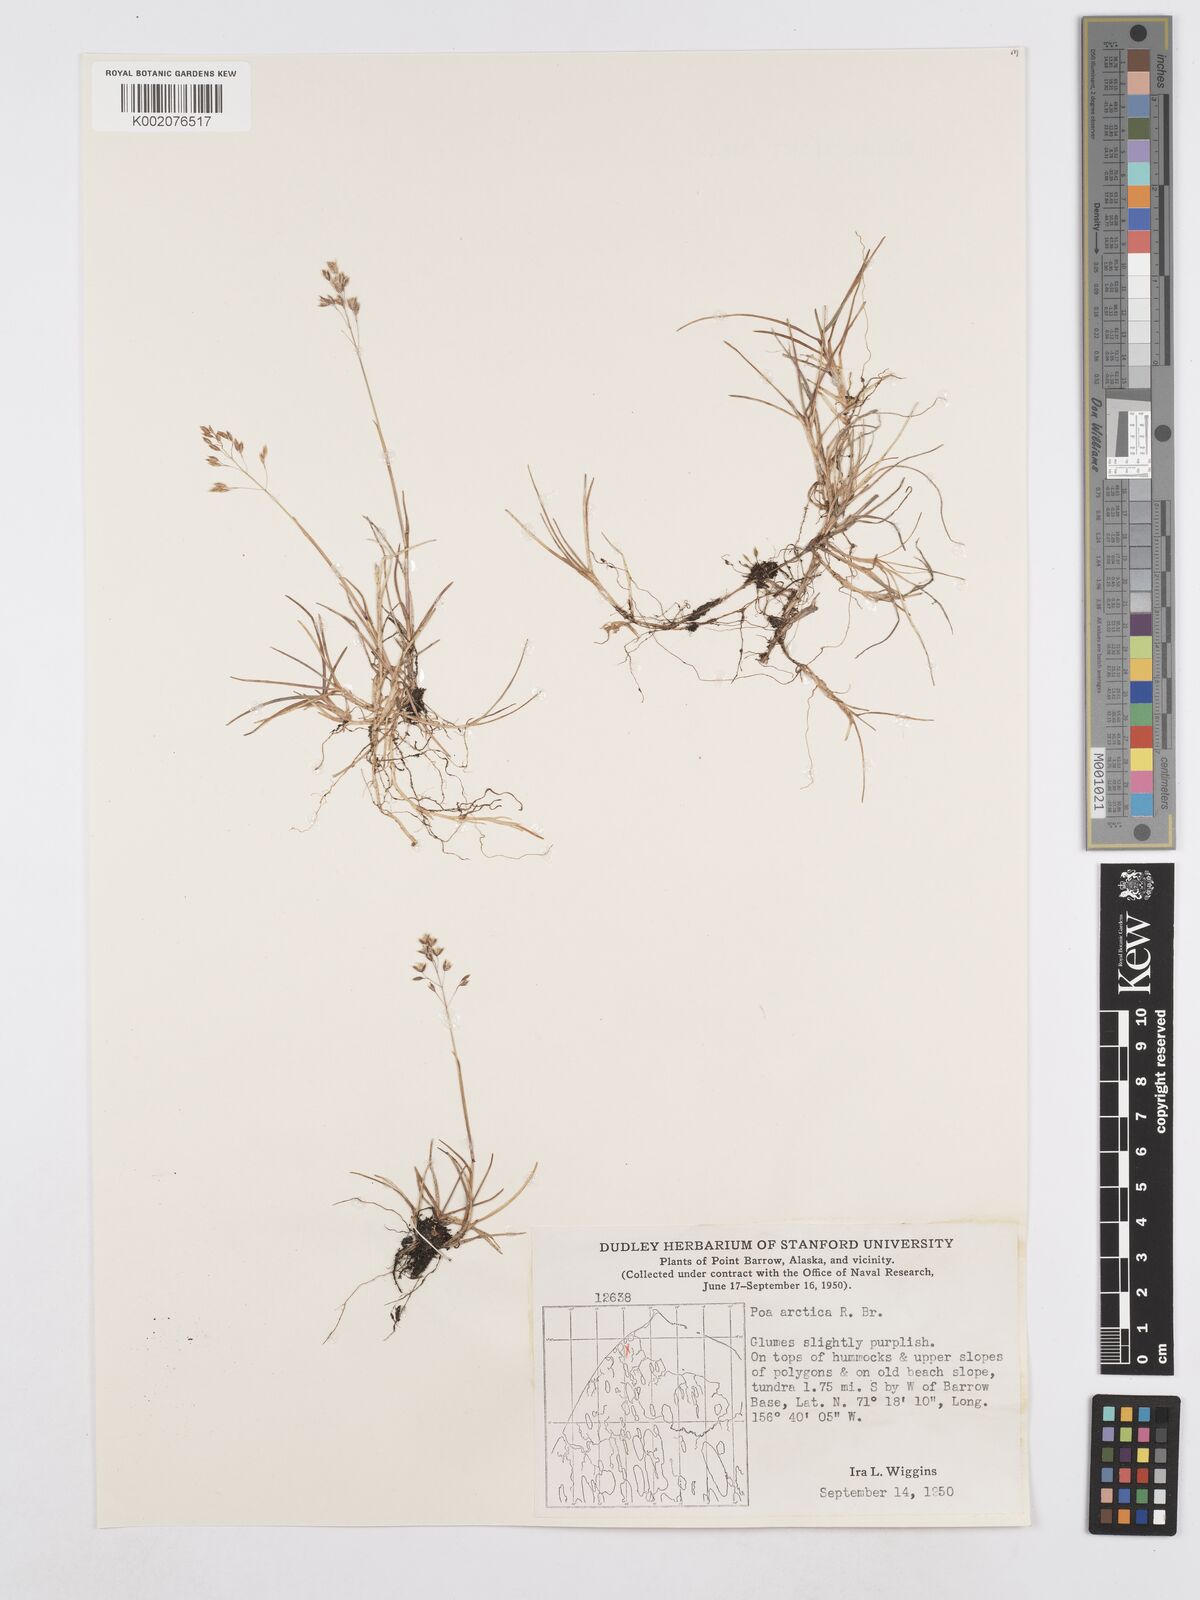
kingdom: Plantae
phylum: Tracheophyta
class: Liliopsida
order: Poales
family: Poaceae
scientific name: Poaceae
